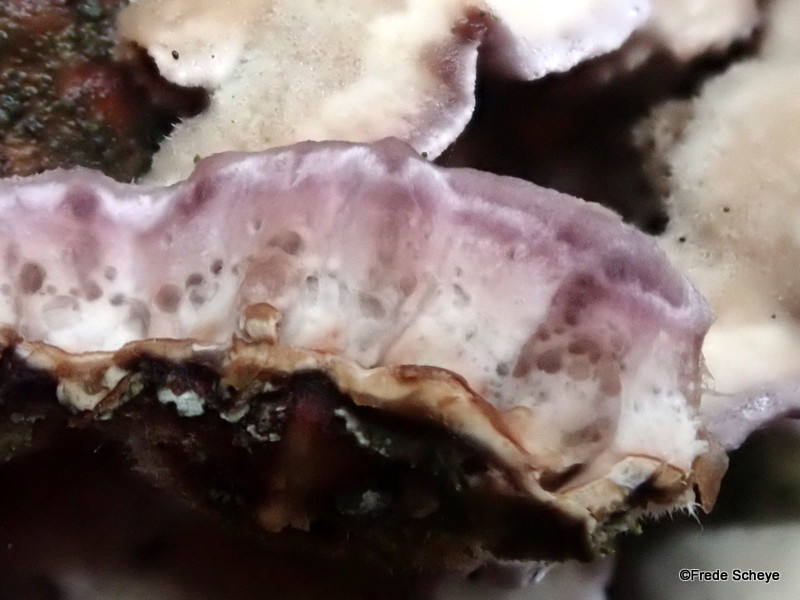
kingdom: Fungi
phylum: Basidiomycota
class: Agaricomycetes
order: Agaricales
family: Cyphellaceae
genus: Chondrostereum
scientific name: Chondrostereum purpureum
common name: purpurlædersvamp
